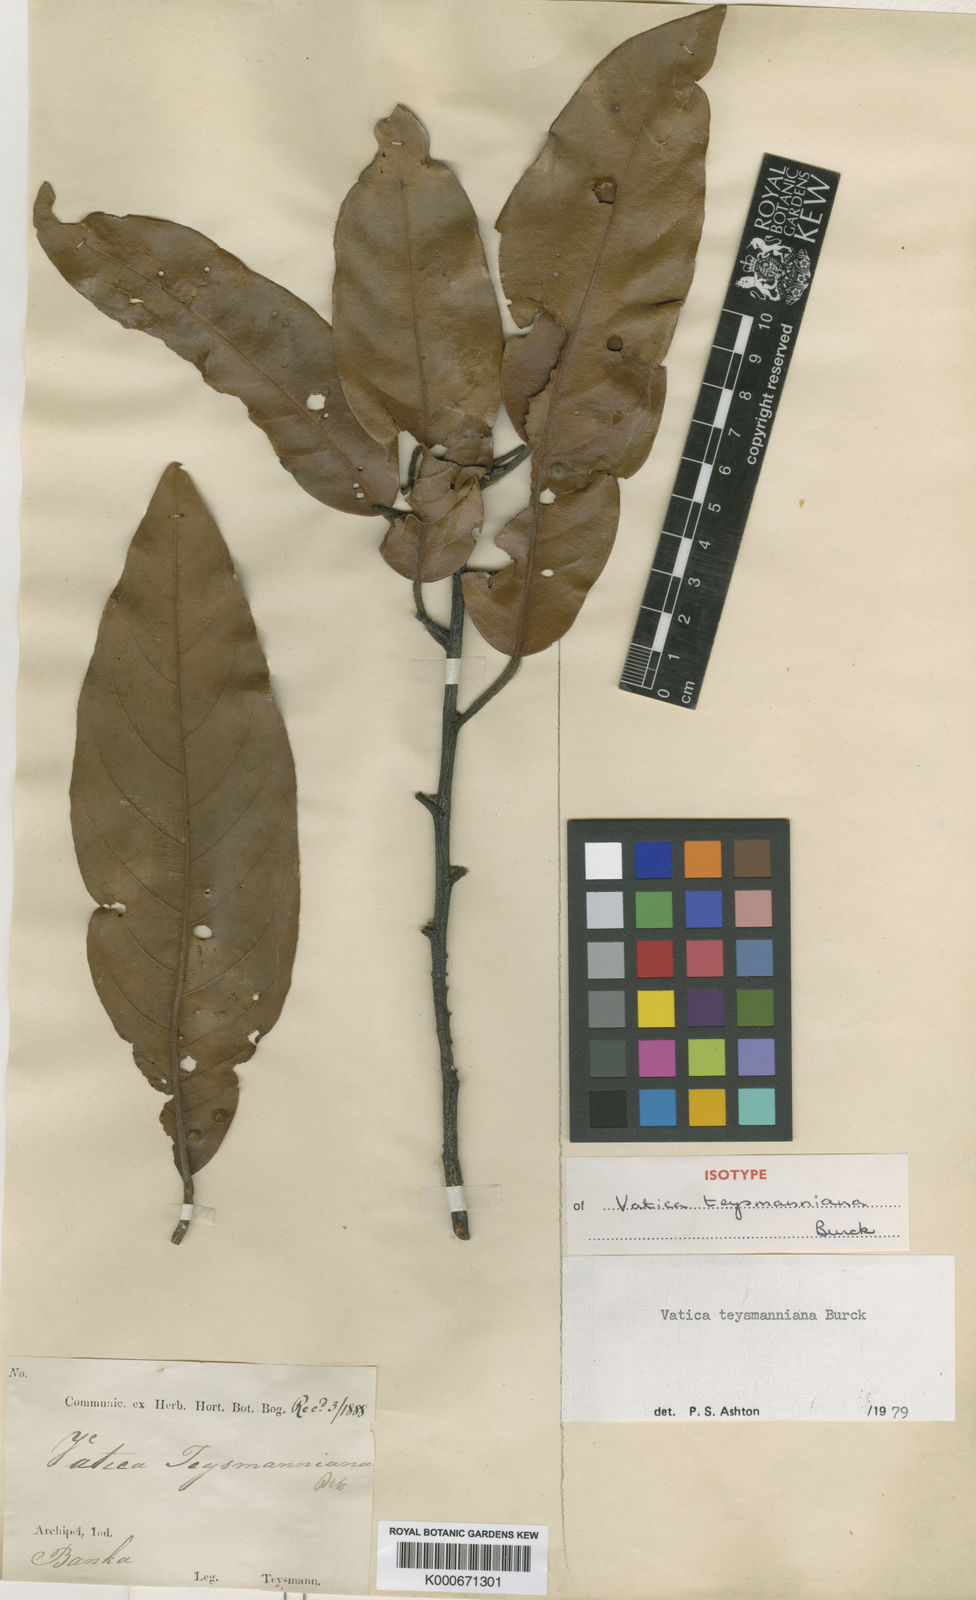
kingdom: Plantae
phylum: Tracheophyta
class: Magnoliopsida
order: Malvales
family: Dipterocarpaceae
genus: Vatica
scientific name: Vatica teysmanniana
